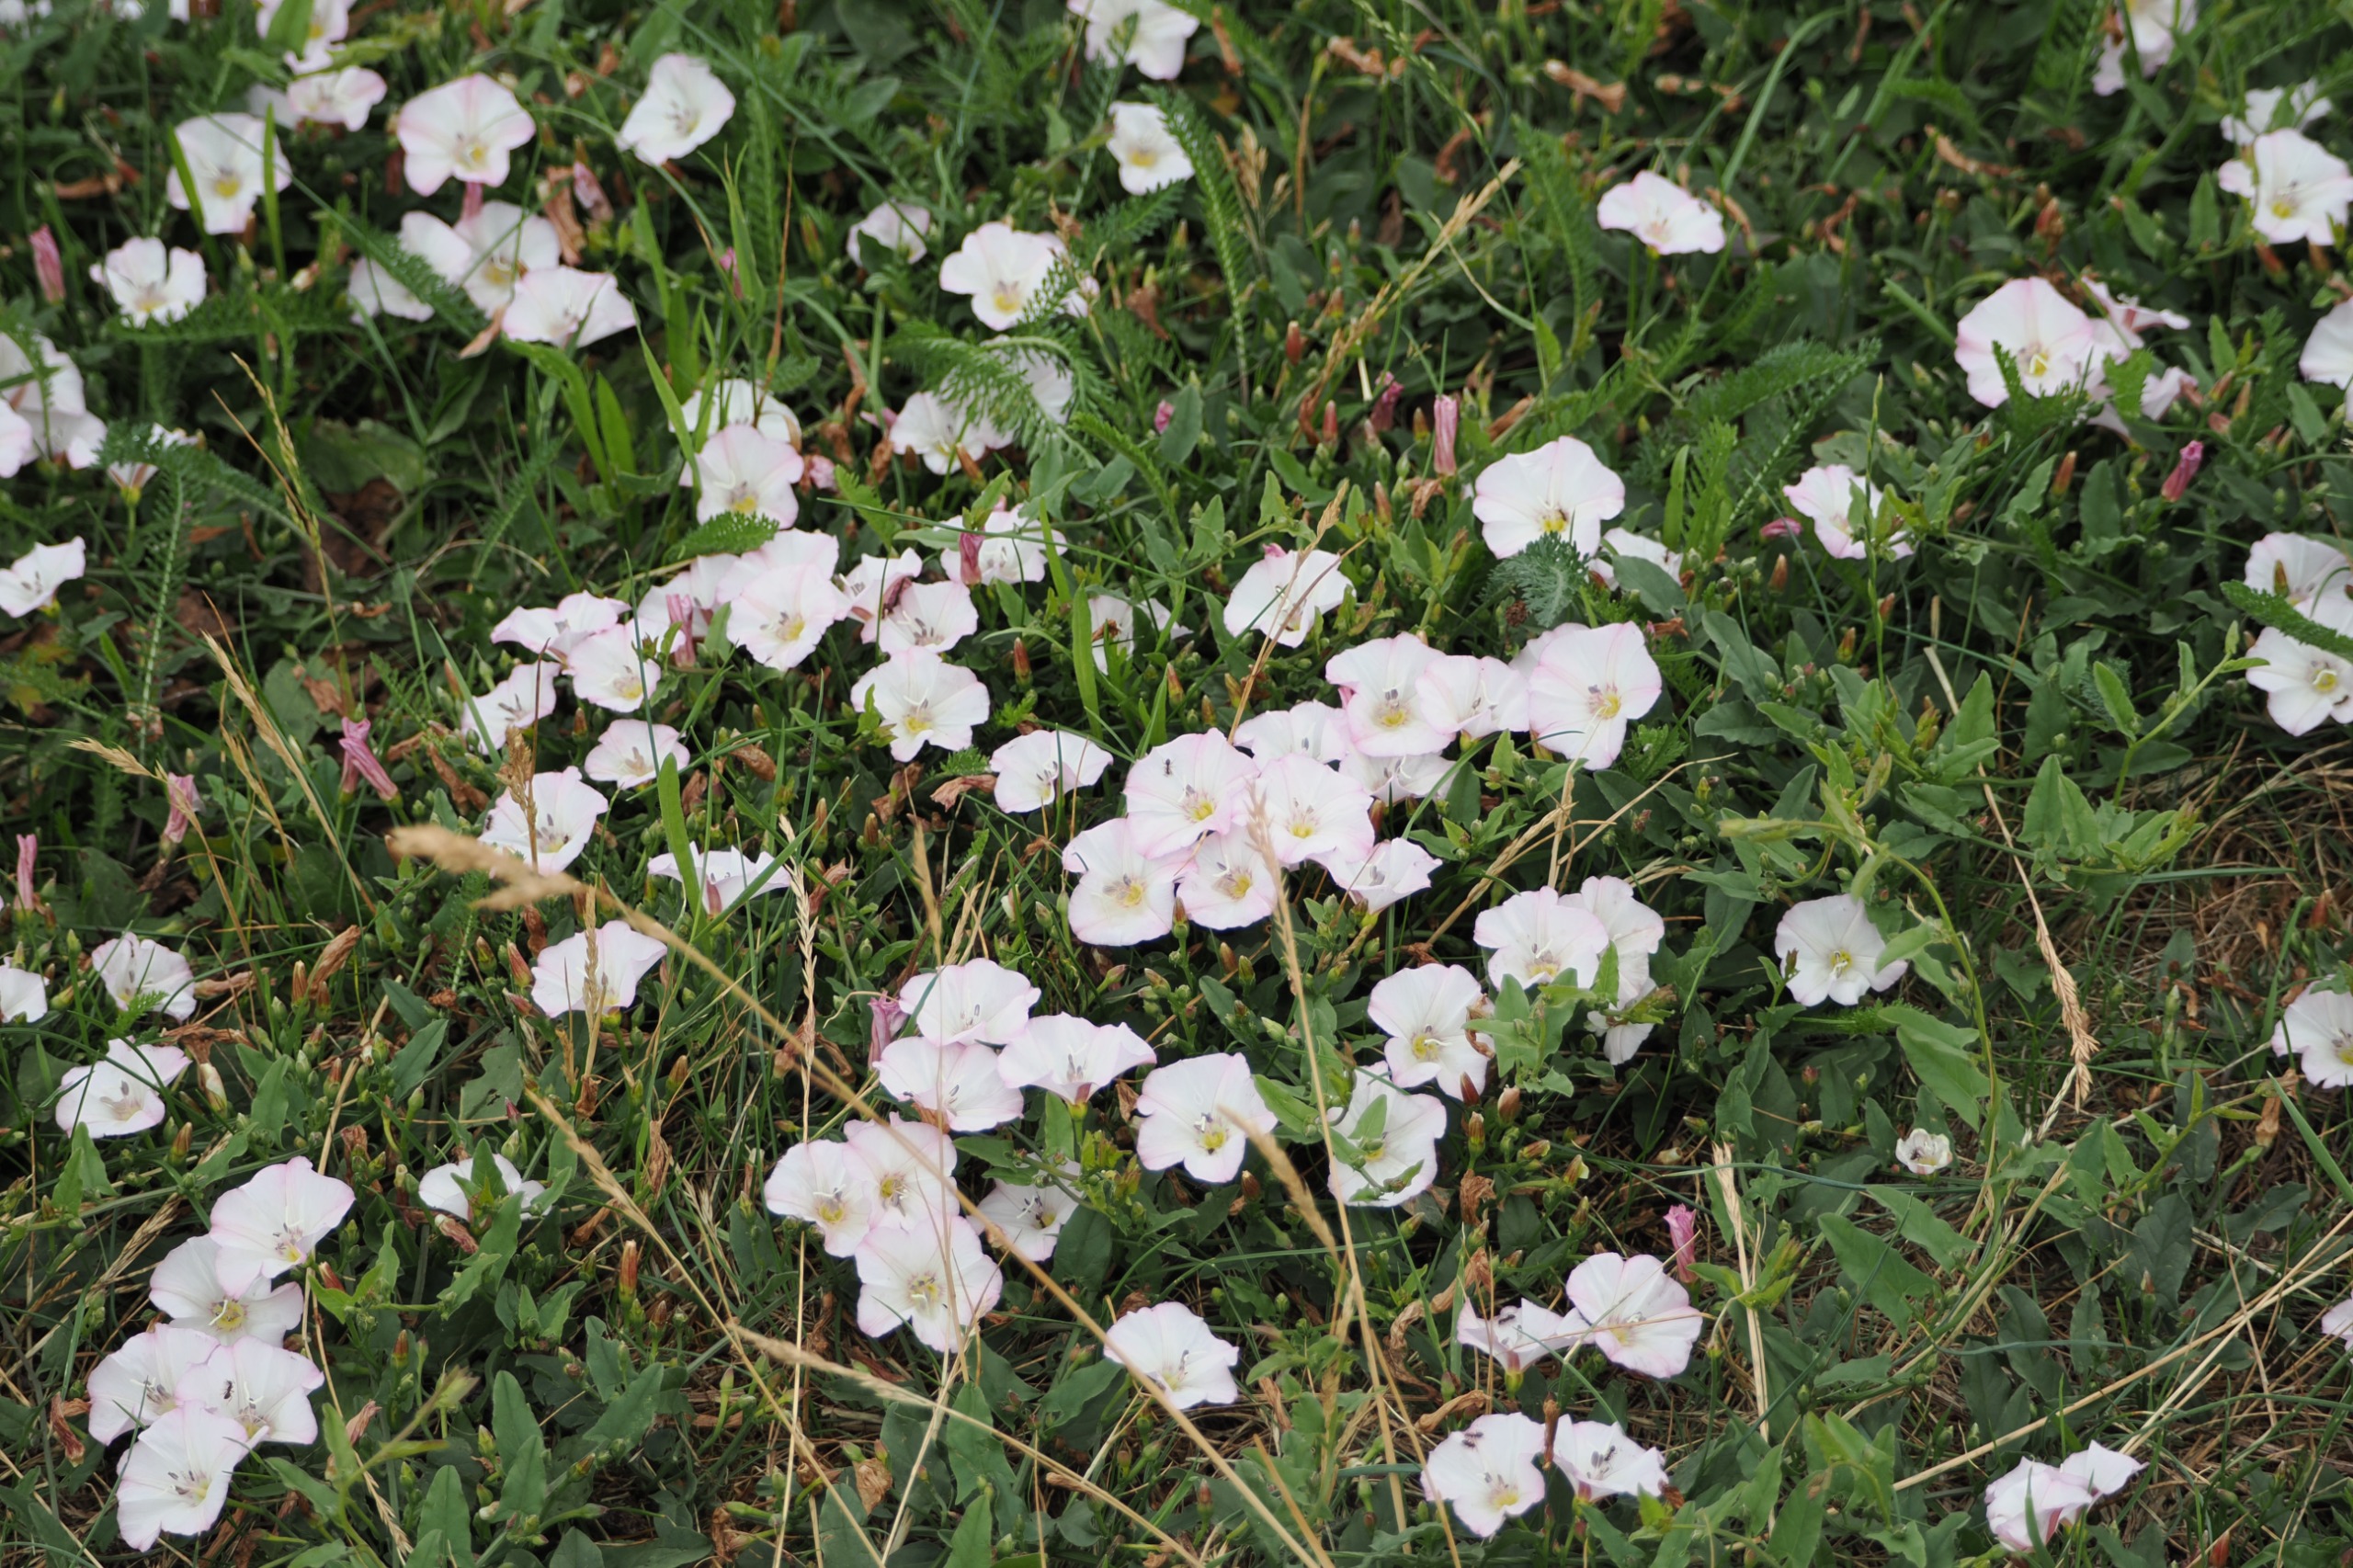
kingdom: Plantae
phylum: Tracheophyta
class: Magnoliopsida
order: Solanales
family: Convolvulaceae
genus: Convolvulus
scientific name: Convolvulus arvensis
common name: Ager-snerle
